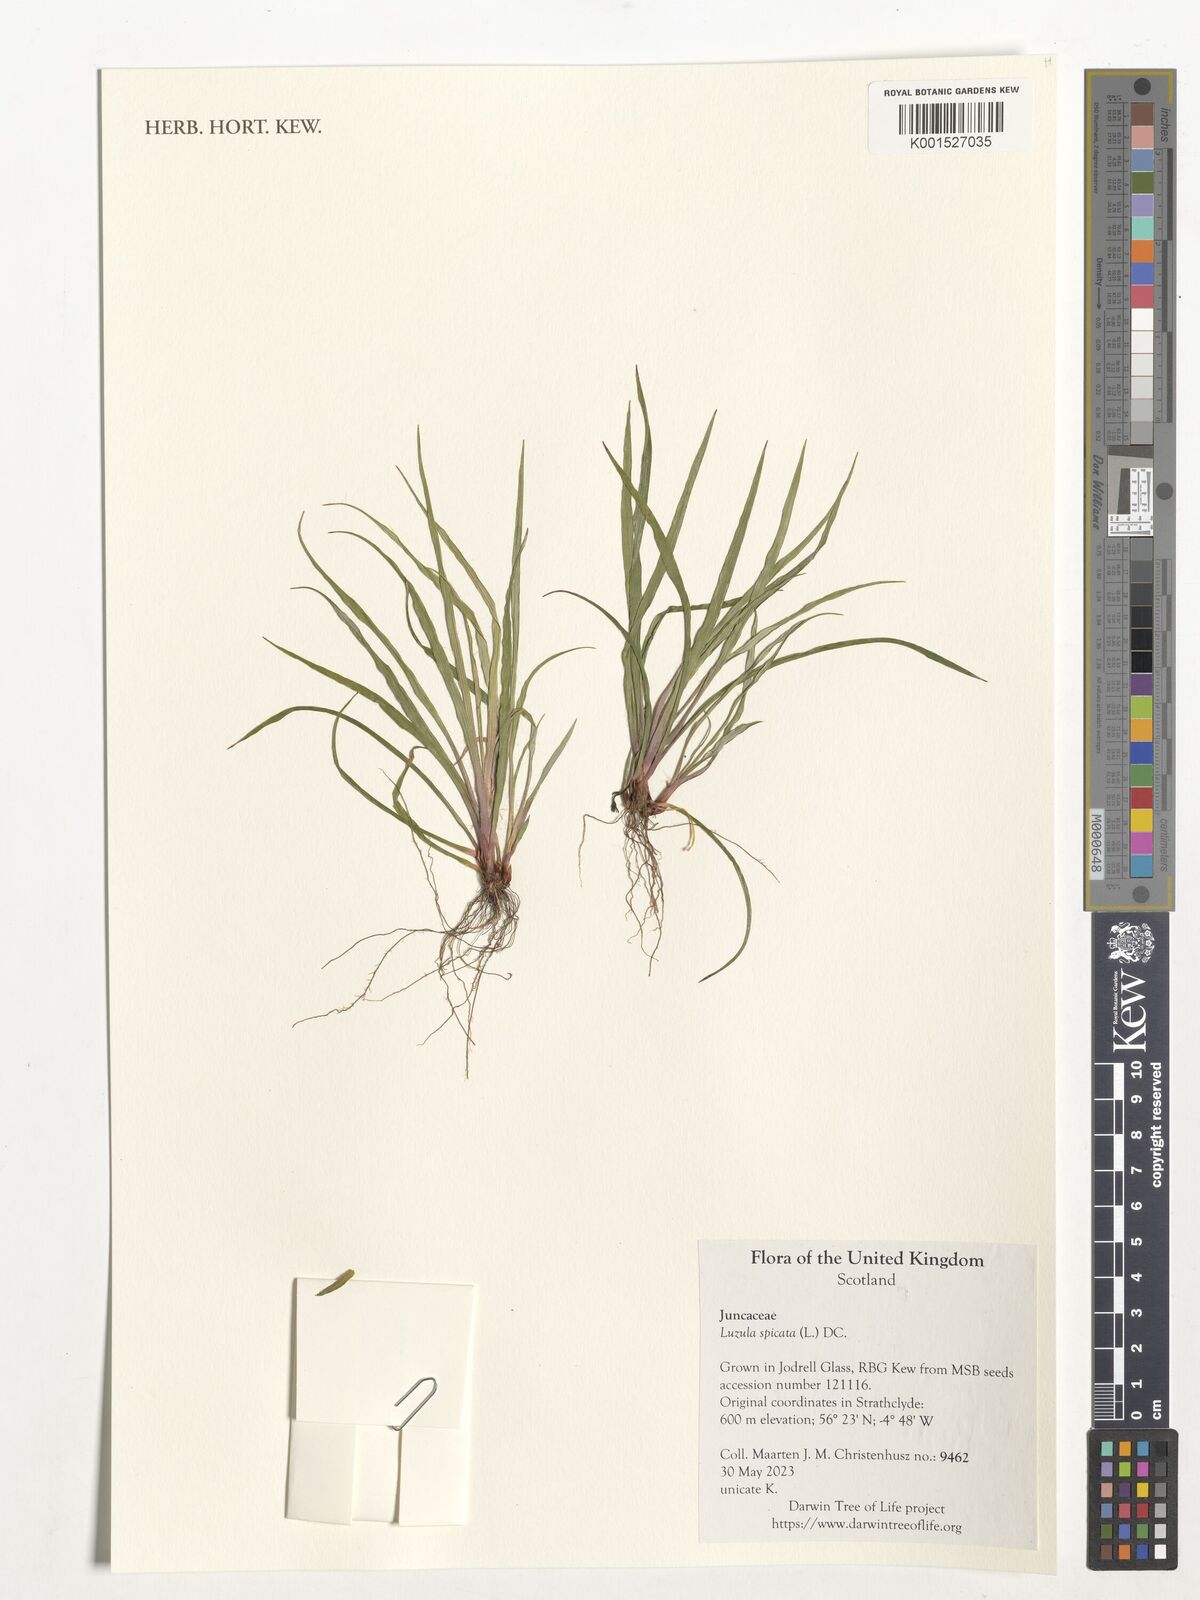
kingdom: Plantae
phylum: Tracheophyta
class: Liliopsida
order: Poales
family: Juncaceae
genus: Luzula
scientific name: Luzula spicata
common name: Spiked wood-rush
